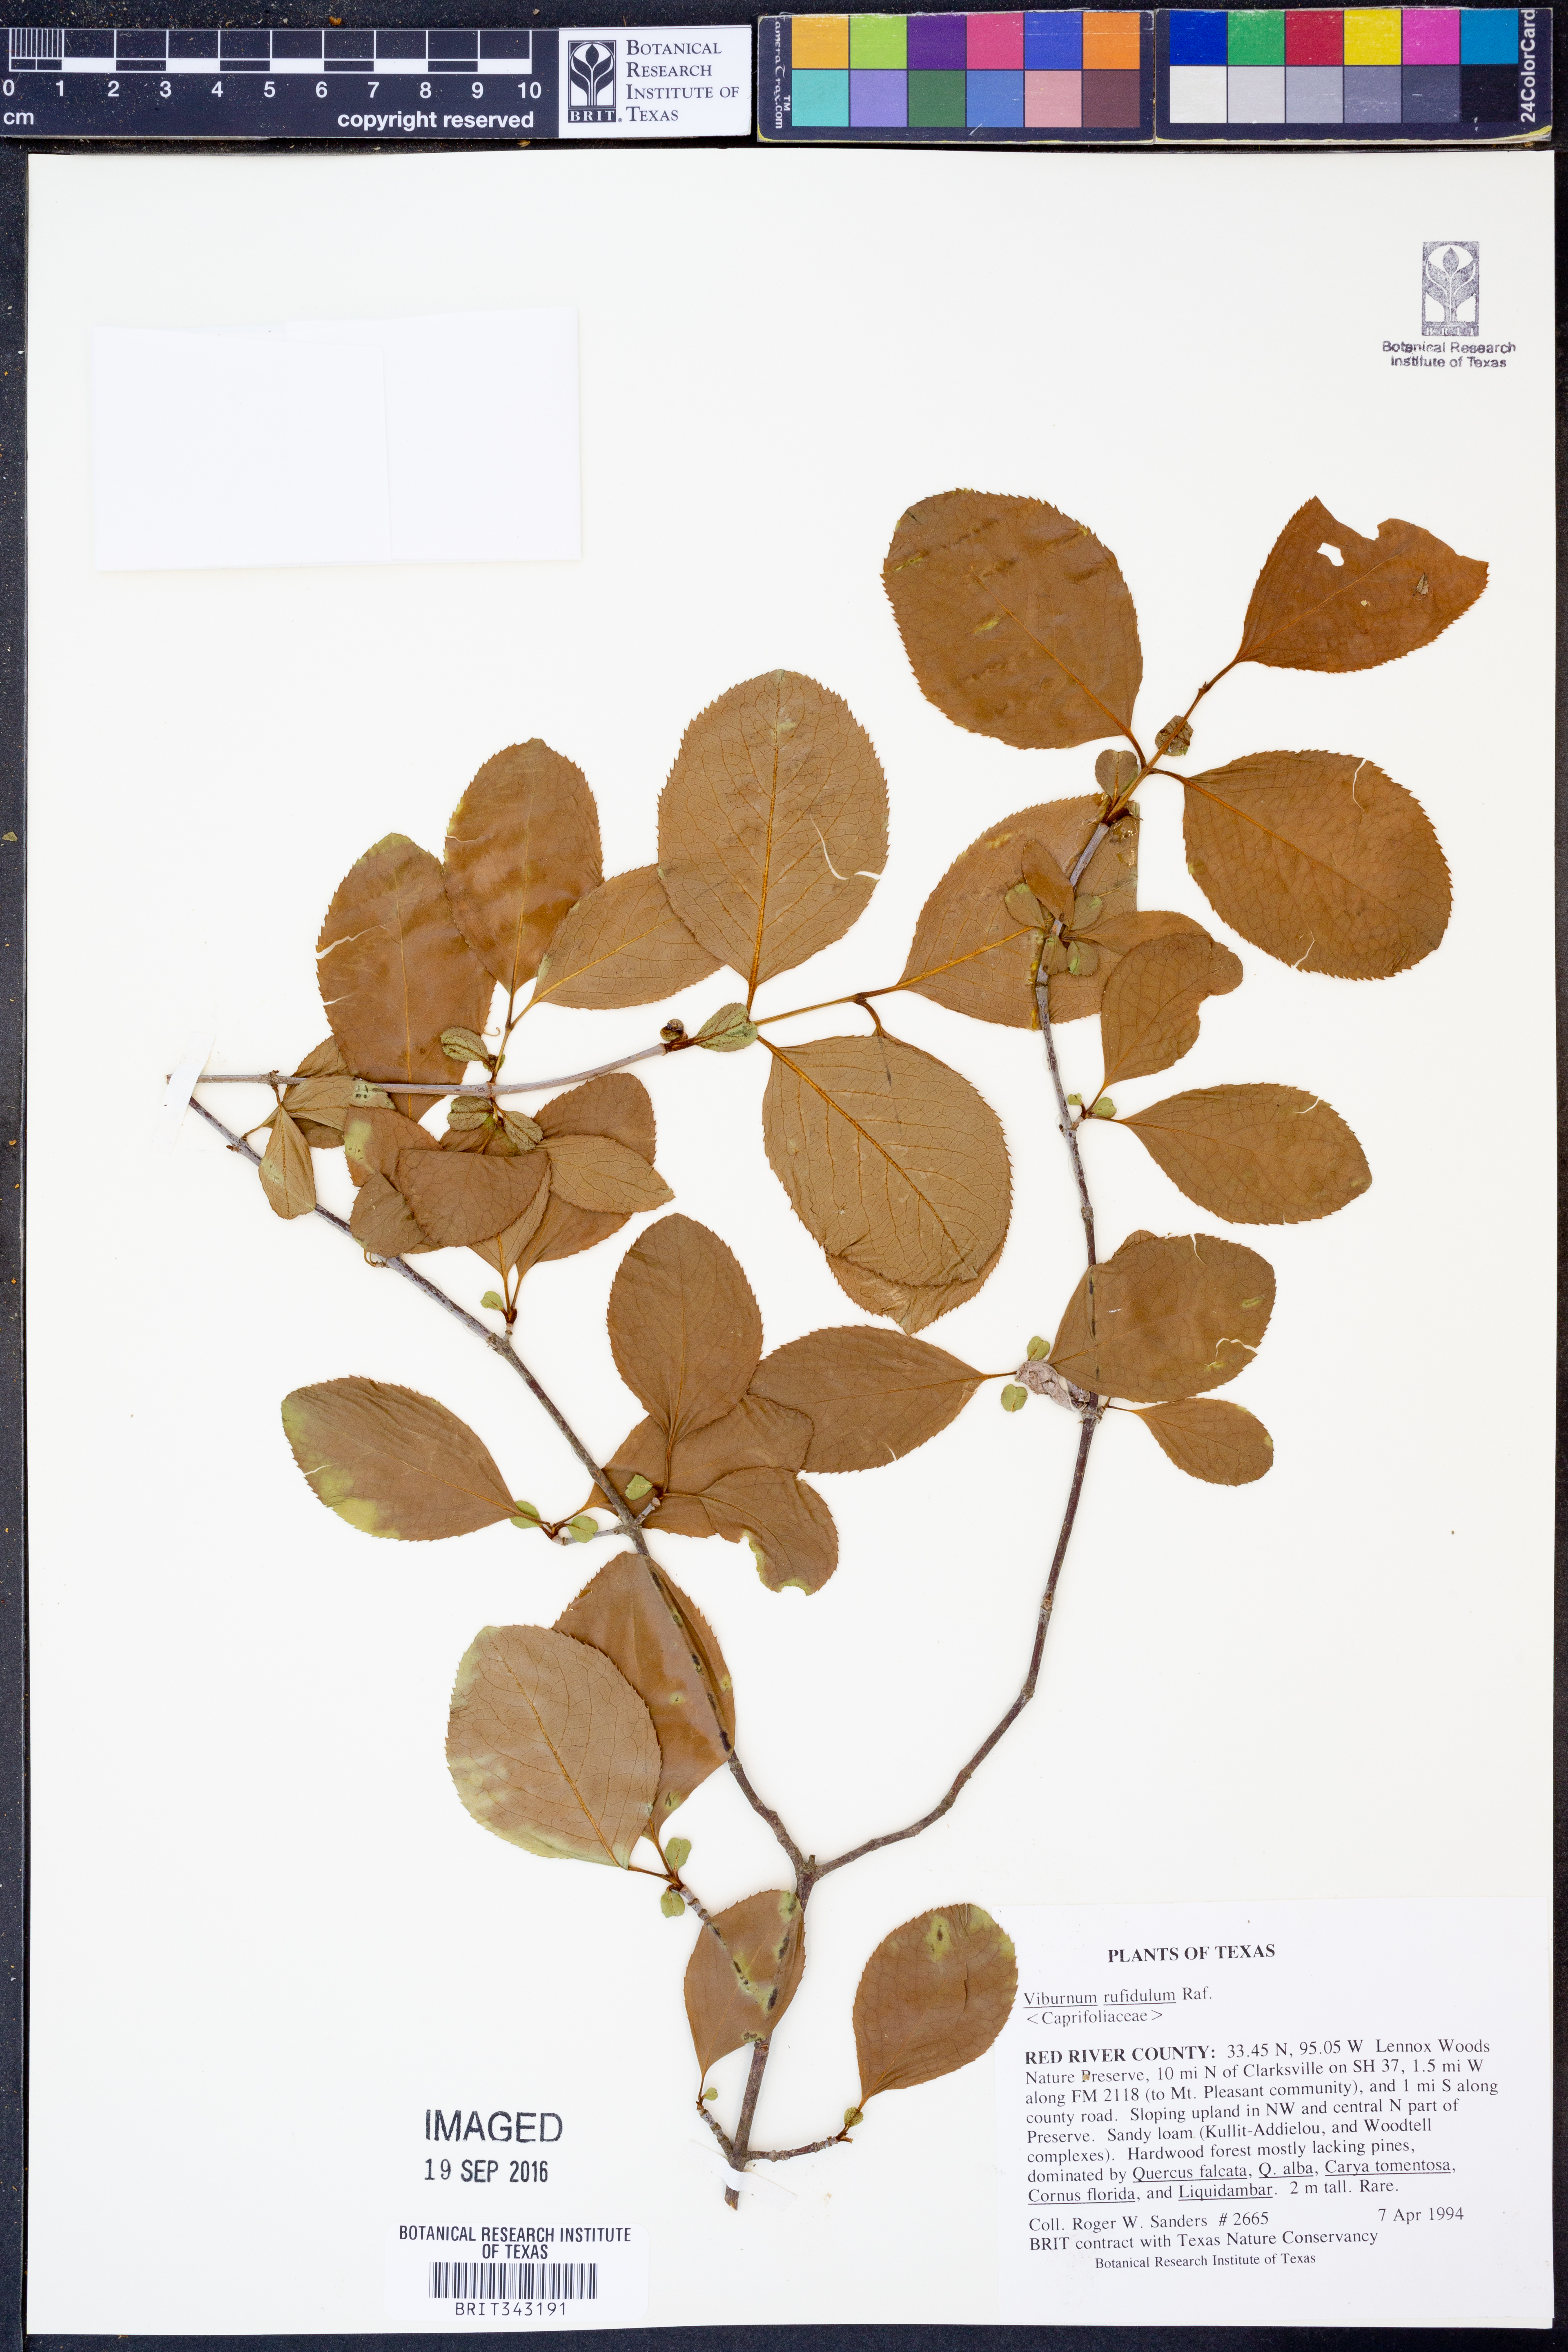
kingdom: Plantae
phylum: Tracheophyta
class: Magnoliopsida
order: Dipsacales
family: Viburnaceae
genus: Viburnum
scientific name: Viburnum rufidulum
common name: Blue haw
